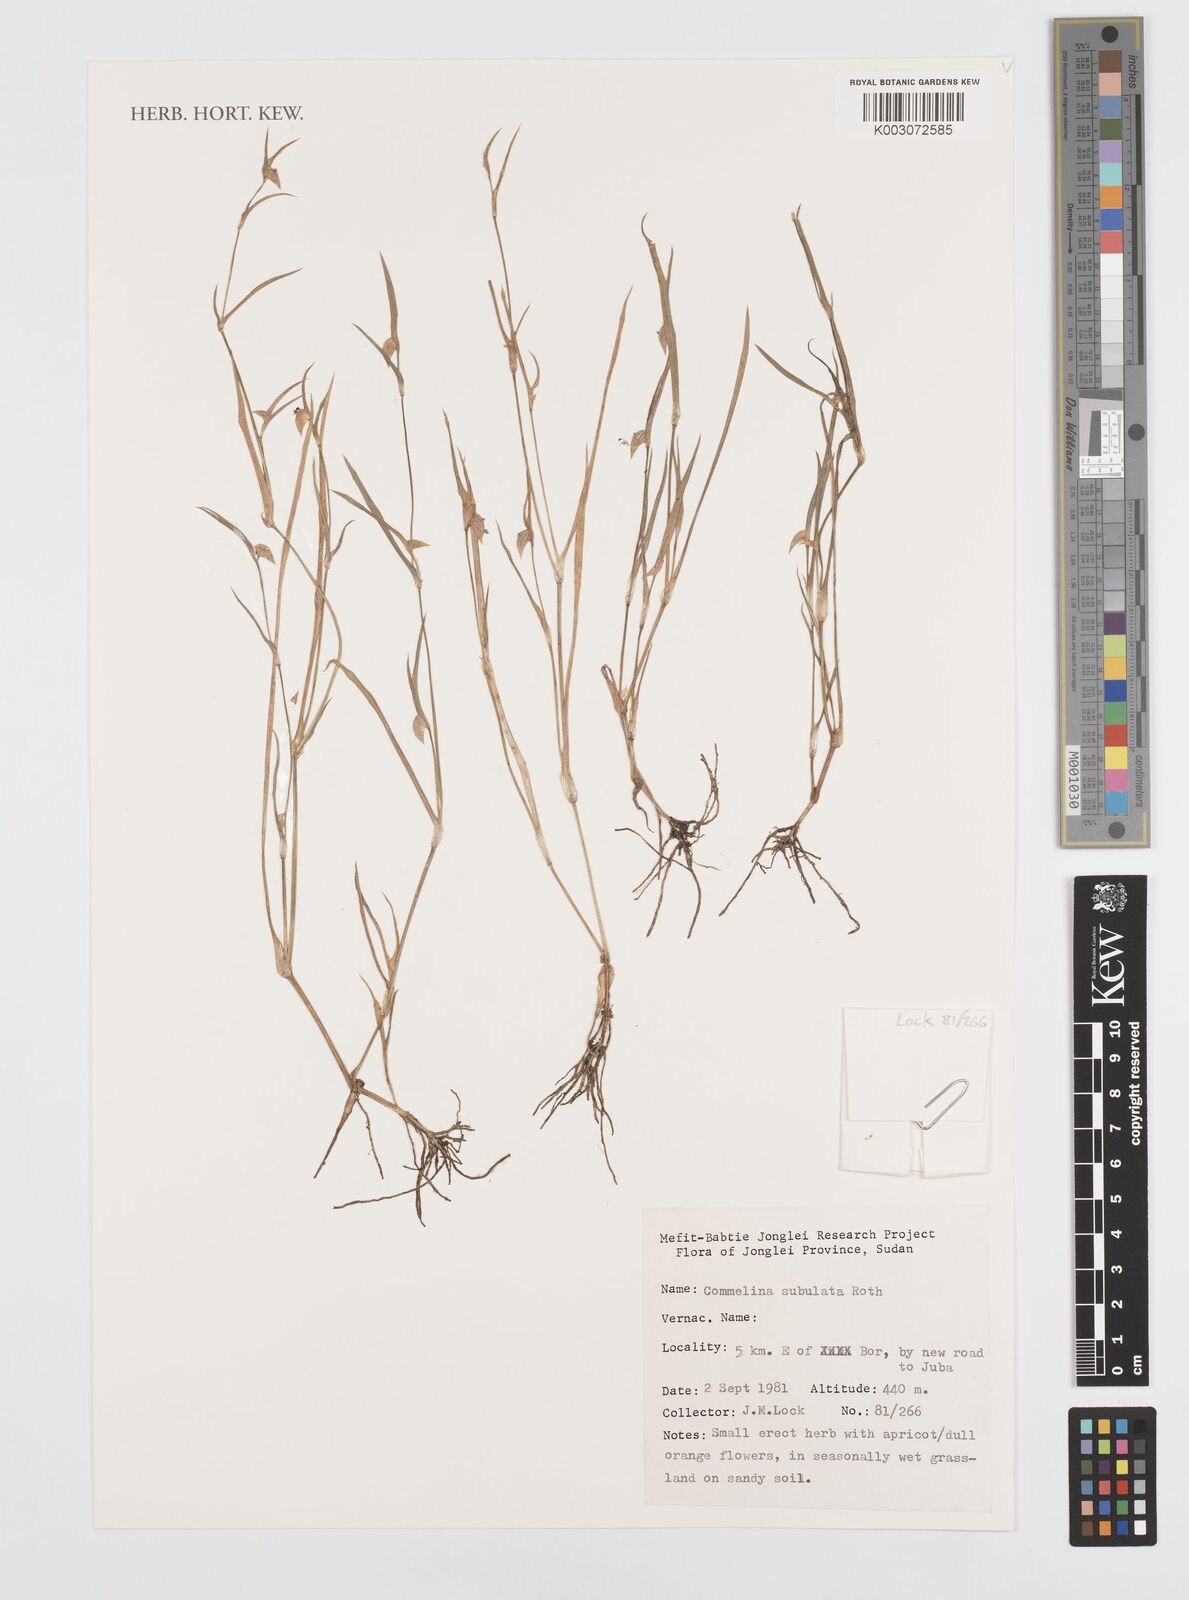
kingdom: Plantae
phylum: Tracheophyta
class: Liliopsida
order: Commelinales
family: Commelinaceae
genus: Commelina
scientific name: Commelina subulata
